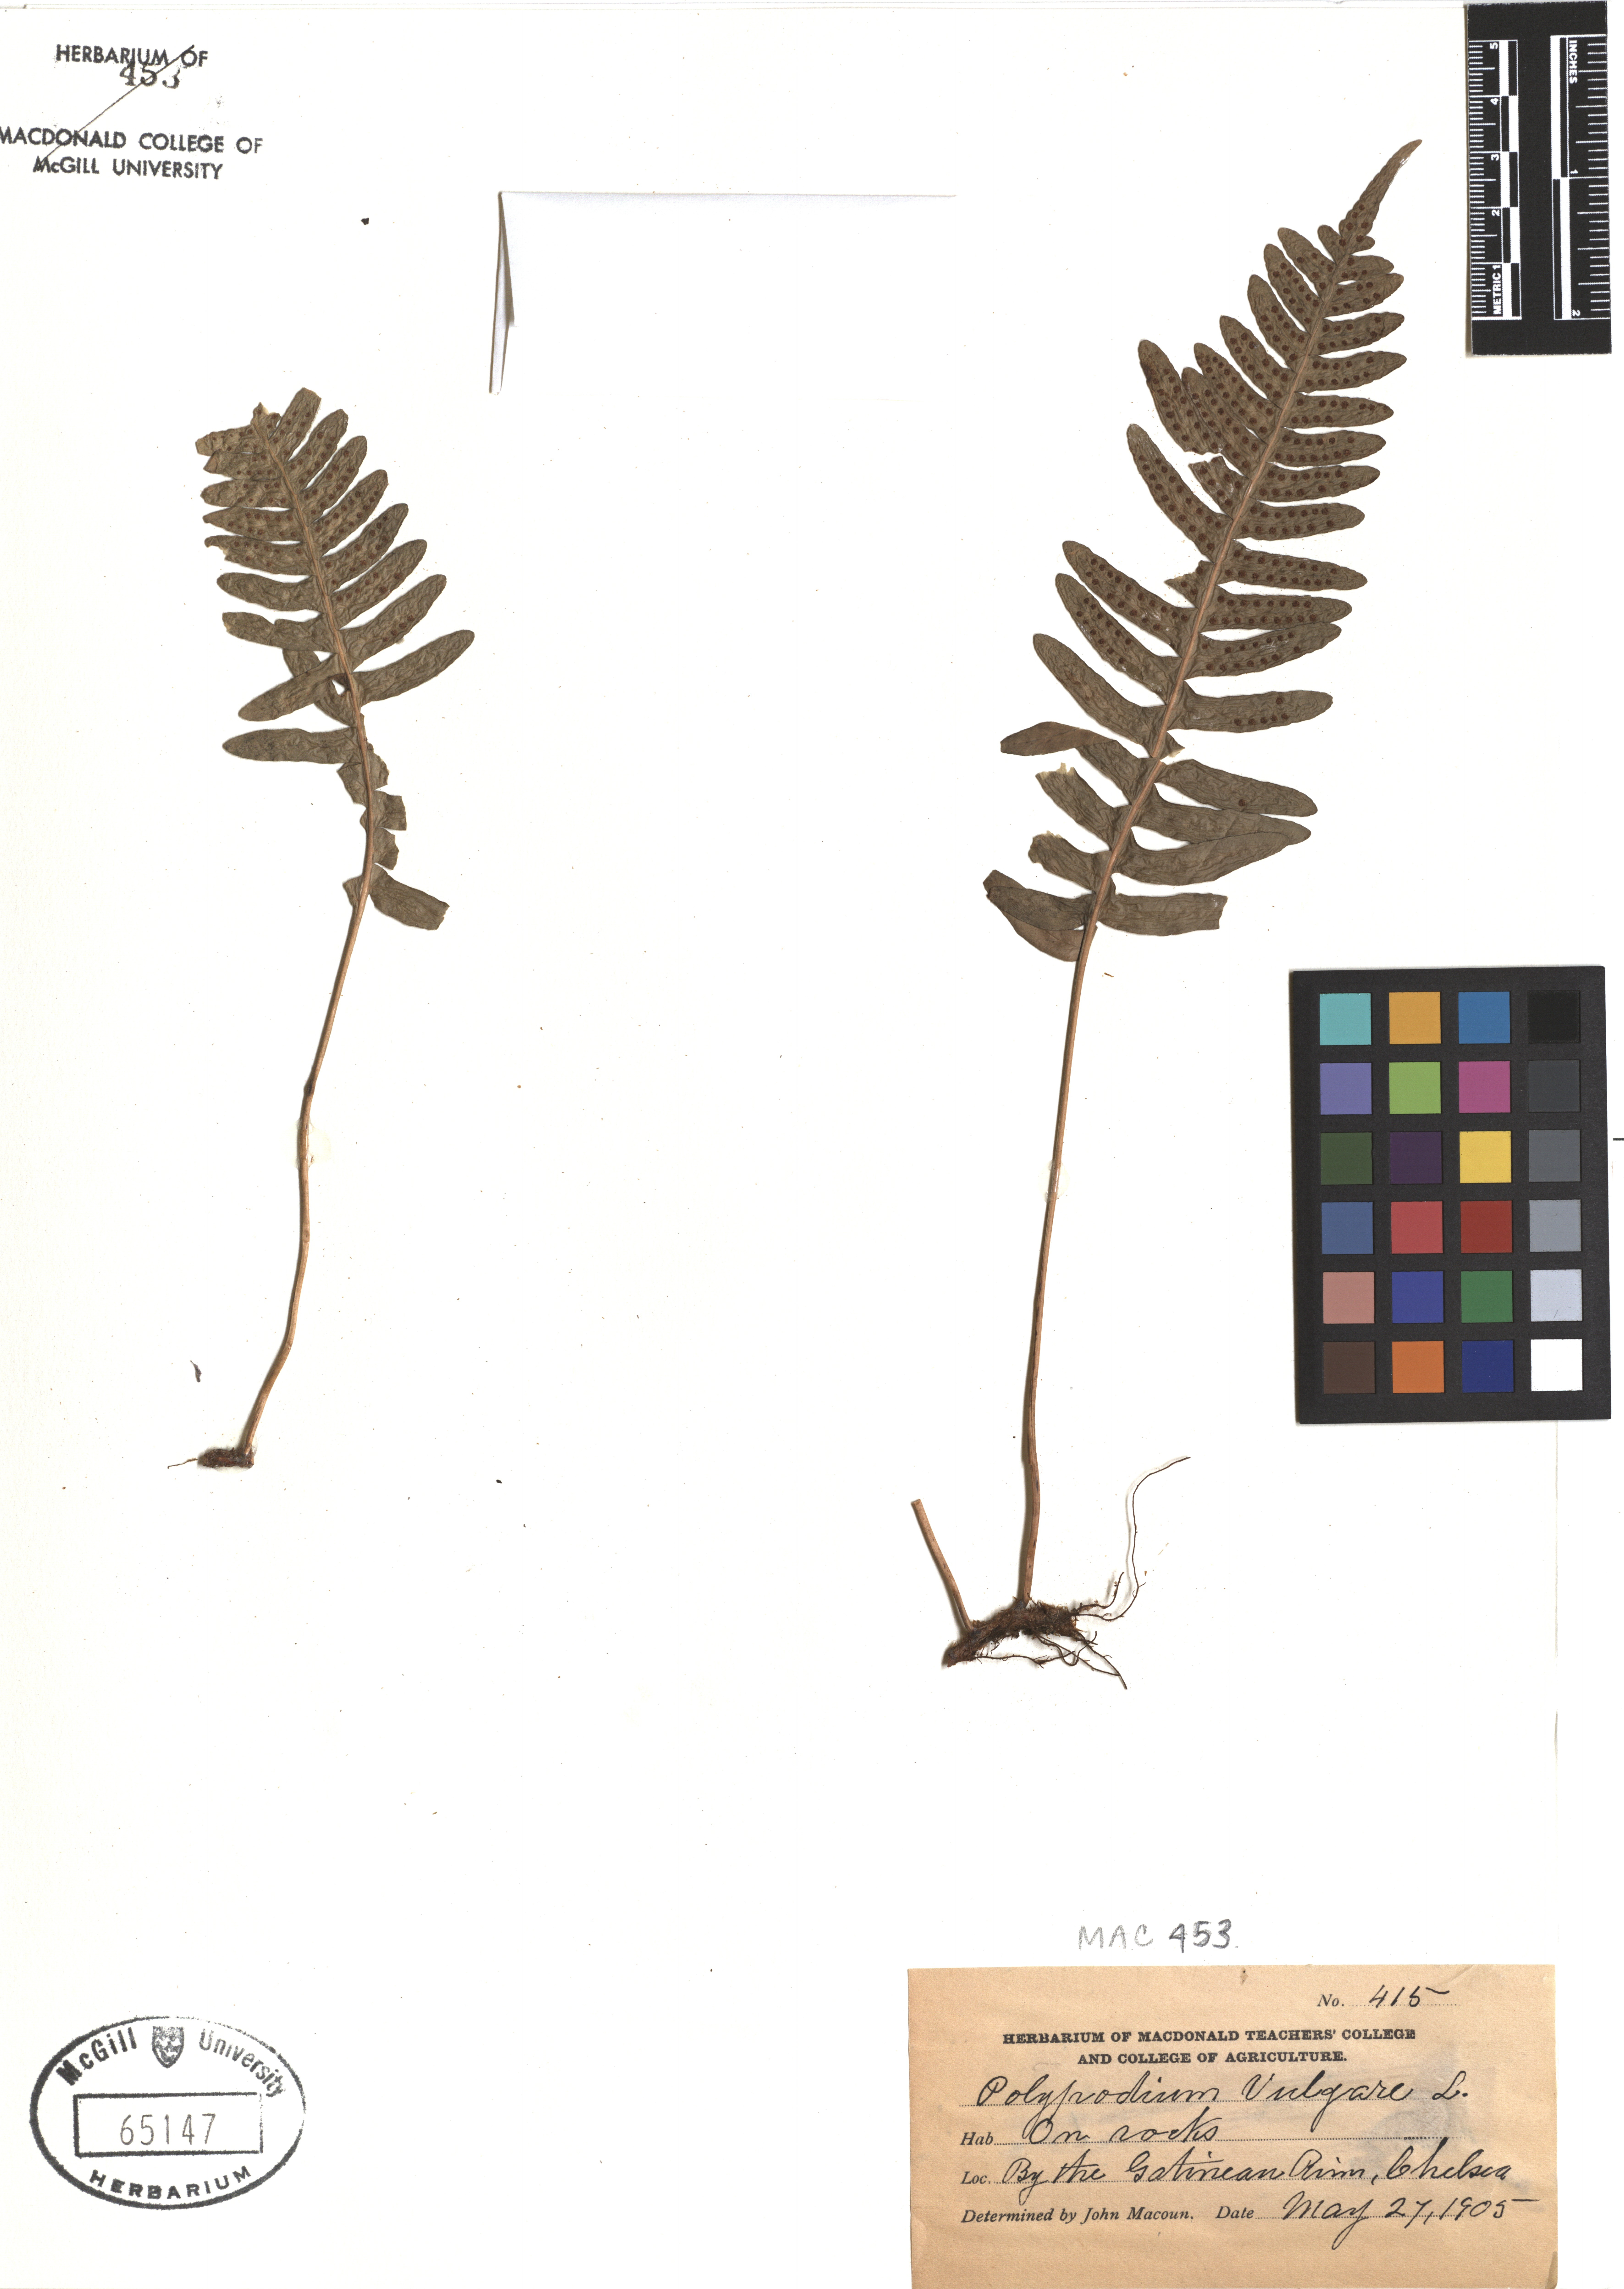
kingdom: Plantae
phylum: Tracheophyta
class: Polypodiopsida
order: Polypodiales
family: Polypodiaceae
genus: Polypodium
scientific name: Polypodium vulgare
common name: Common polypody
